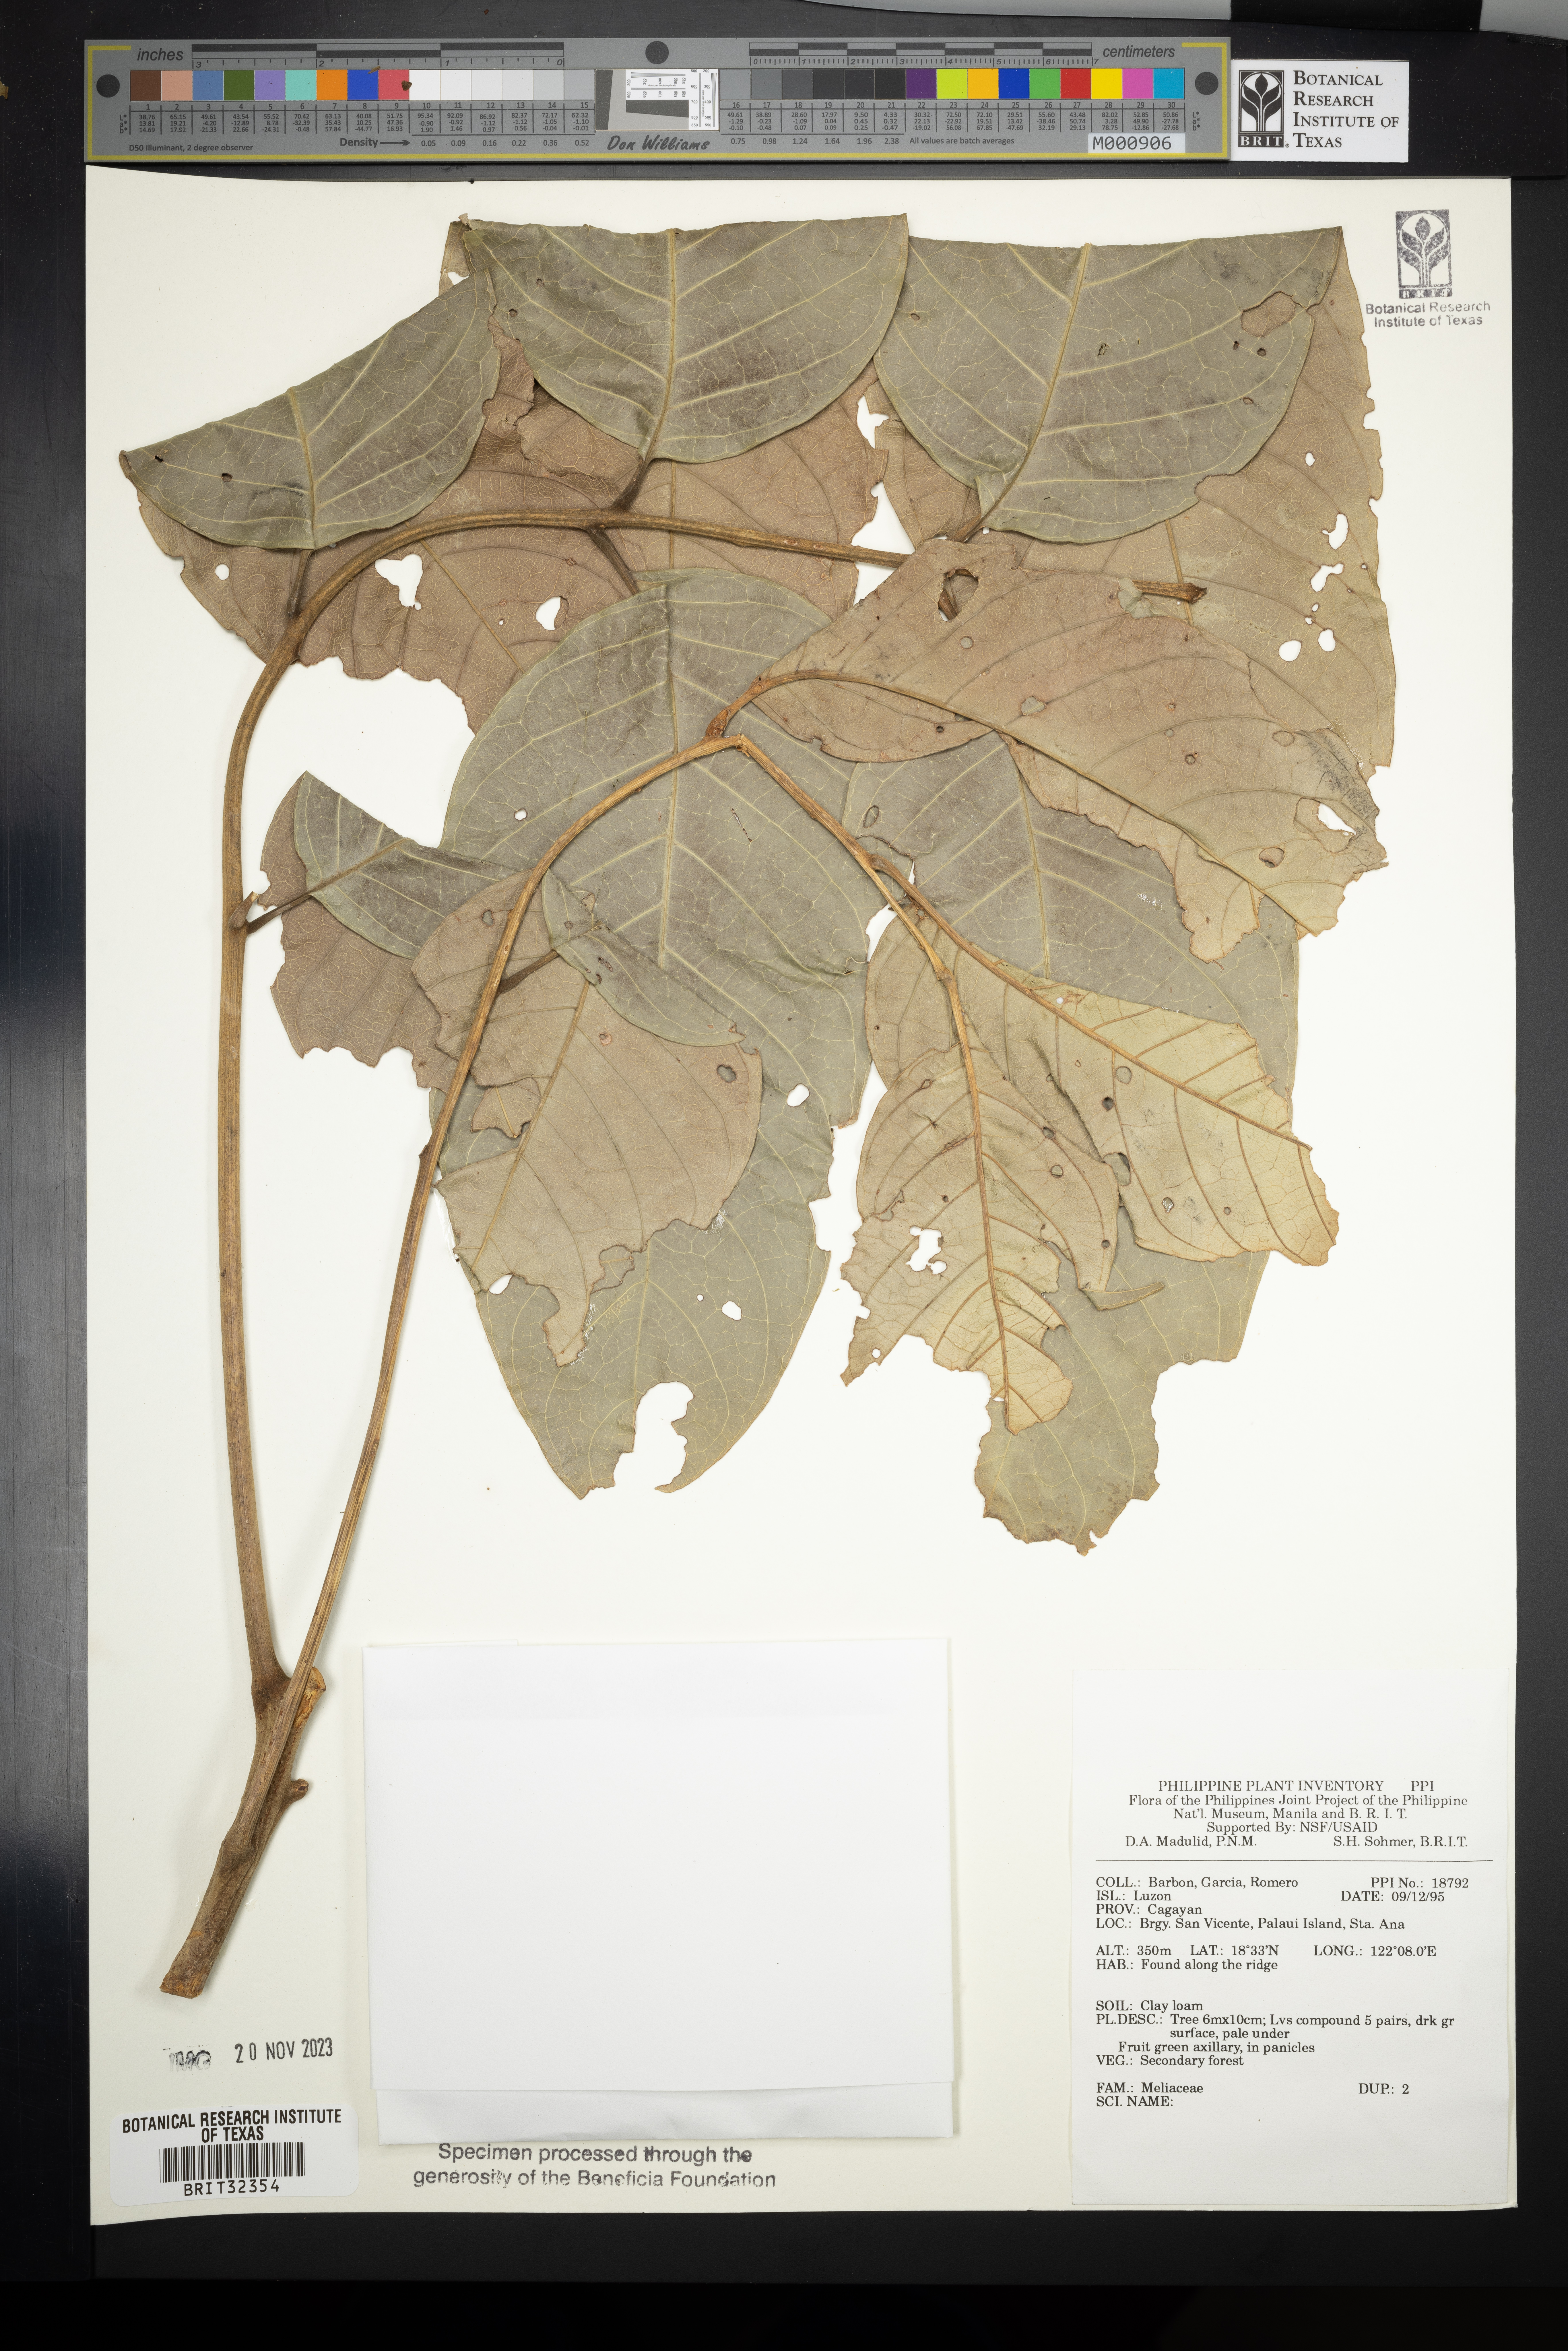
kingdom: Plantae
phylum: Tracheophyta
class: Magnoliopsida
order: Sapindales
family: Meliaceae
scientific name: Meliaceae
